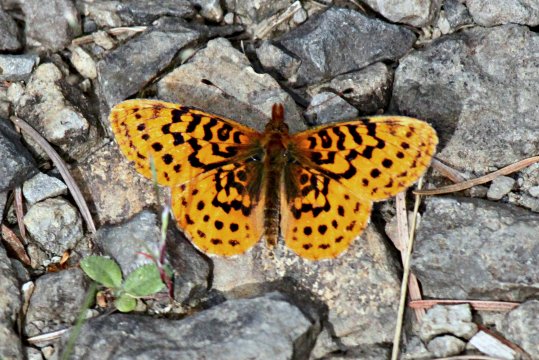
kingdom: Animalia
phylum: Arthropoda
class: Insecta
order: Lepidoptera
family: Nymphalidae
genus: Boloria
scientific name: Boloria epithore
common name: Pacific Fritillary
